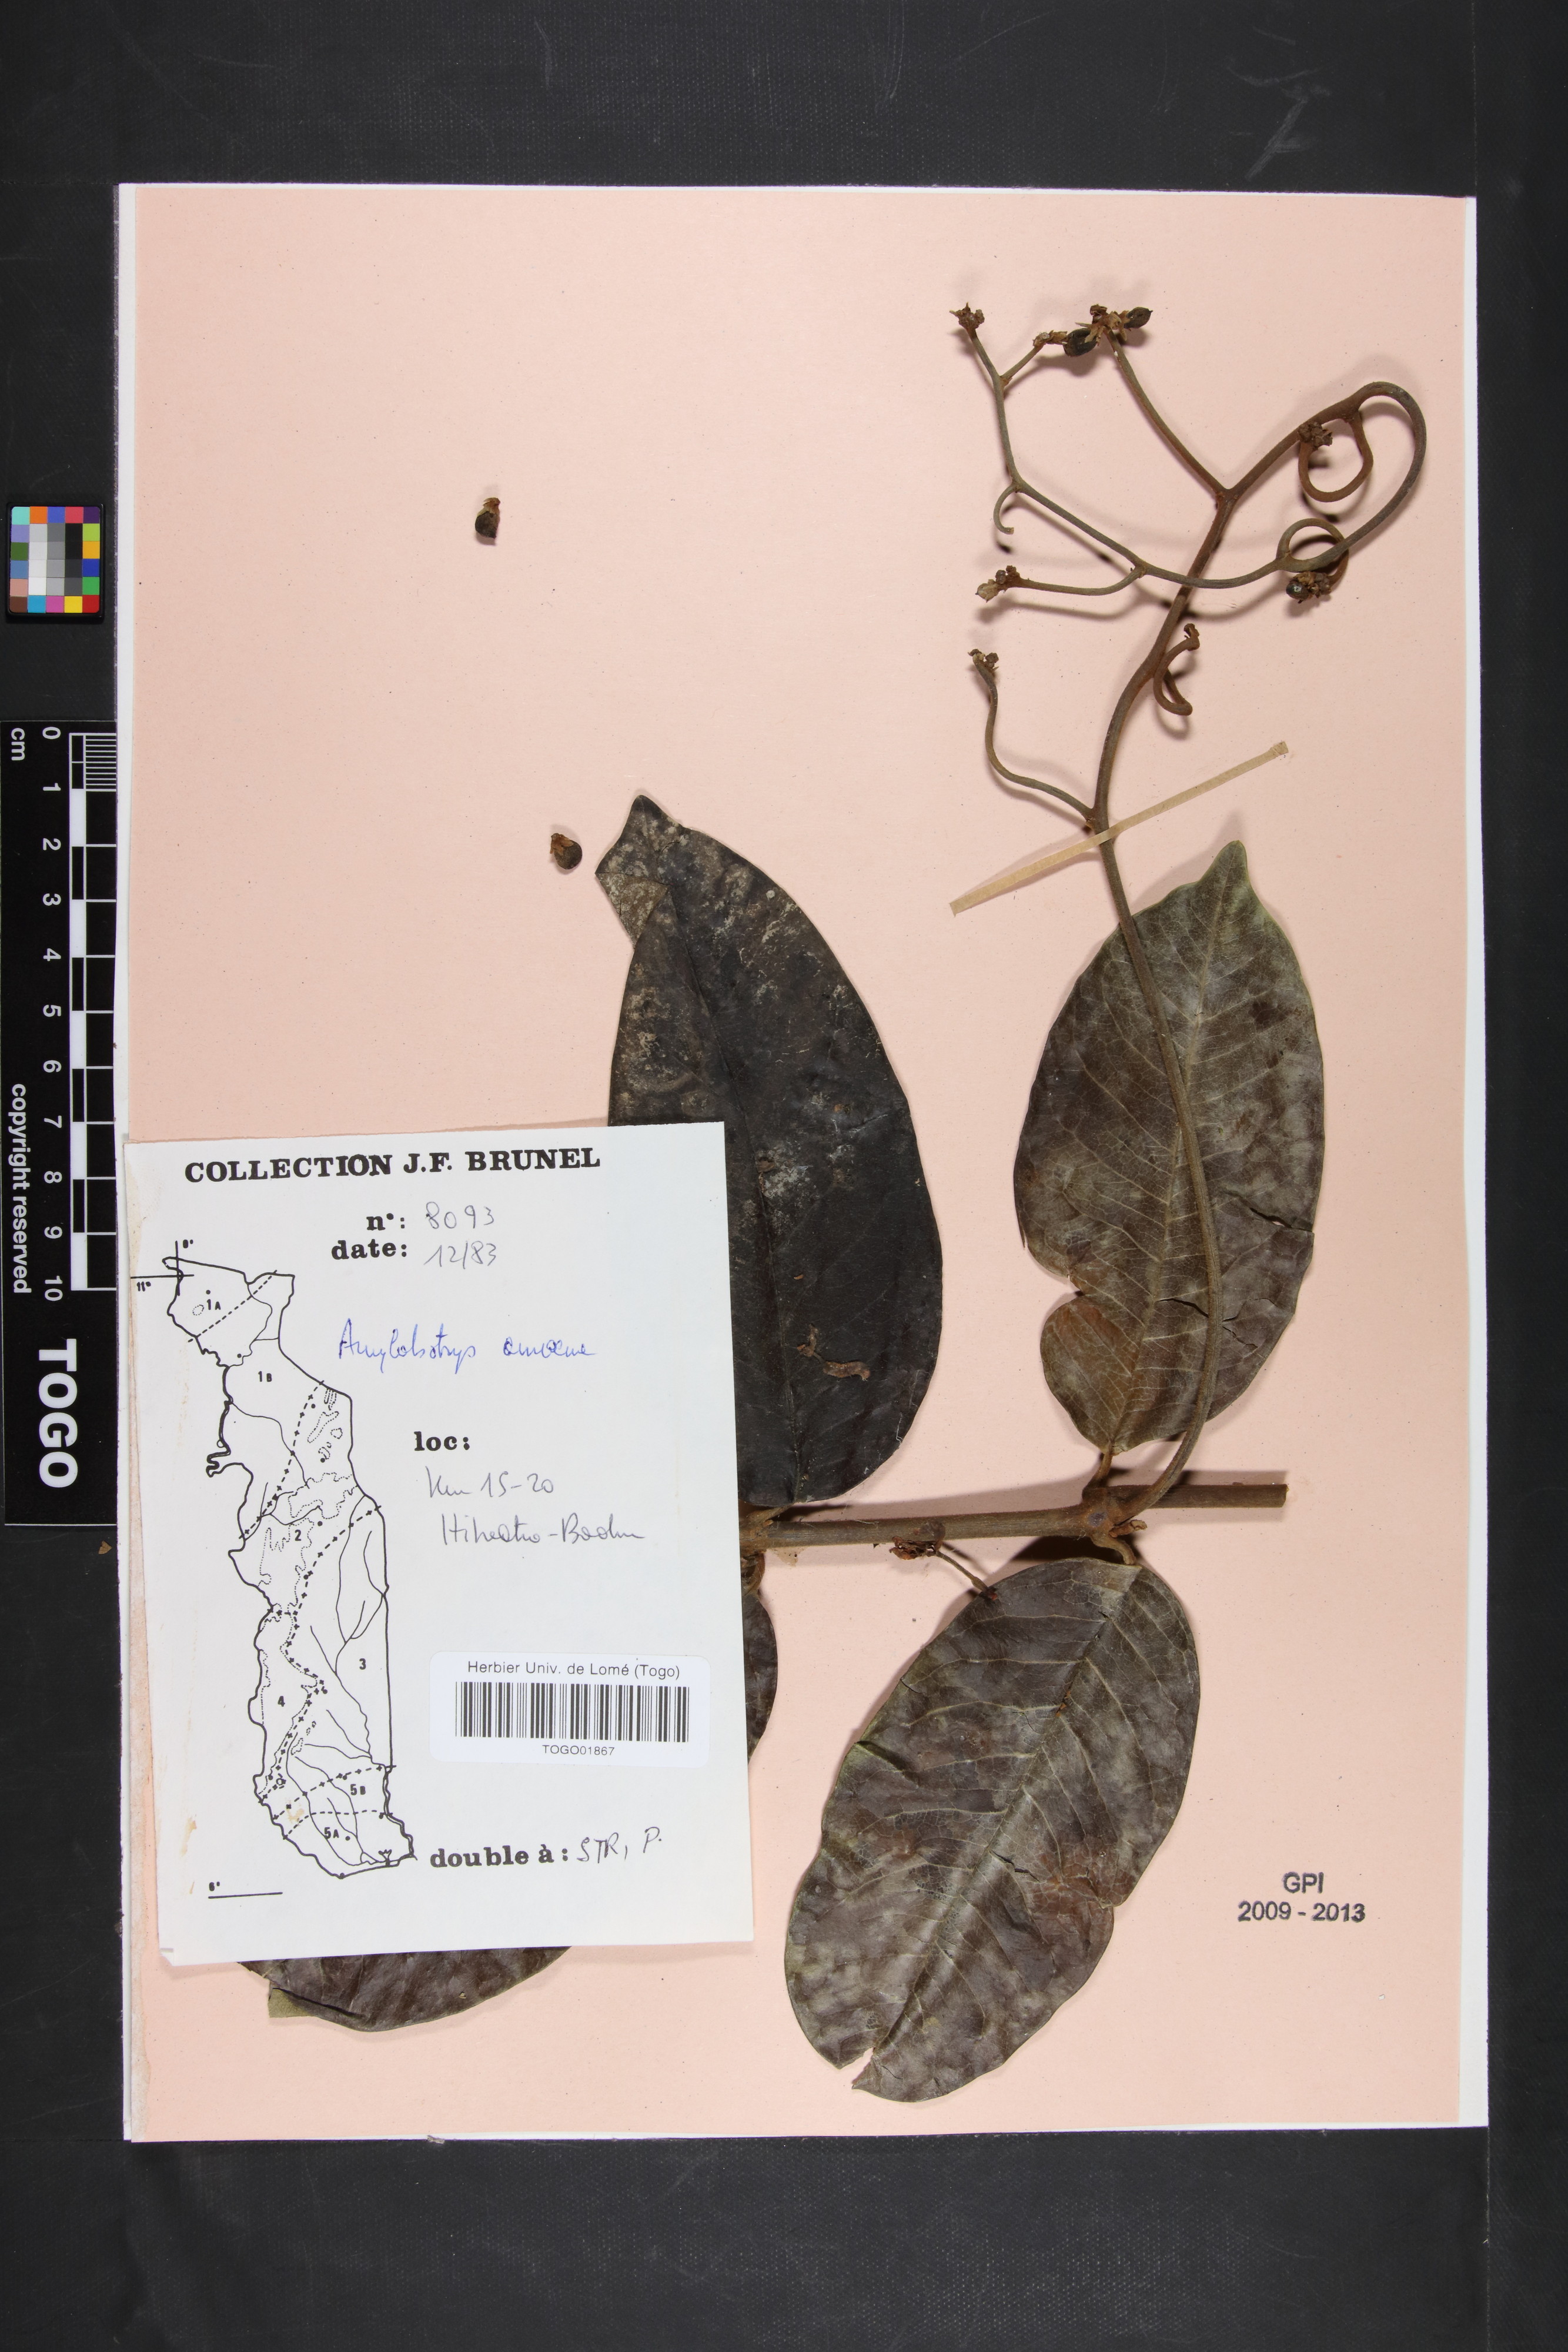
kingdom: Plantae
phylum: Tracheophyta
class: Magnoliopsida
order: Gentianales
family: Apocynaceae
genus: Ancylobothrys
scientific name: Ancylobothrys amoena
